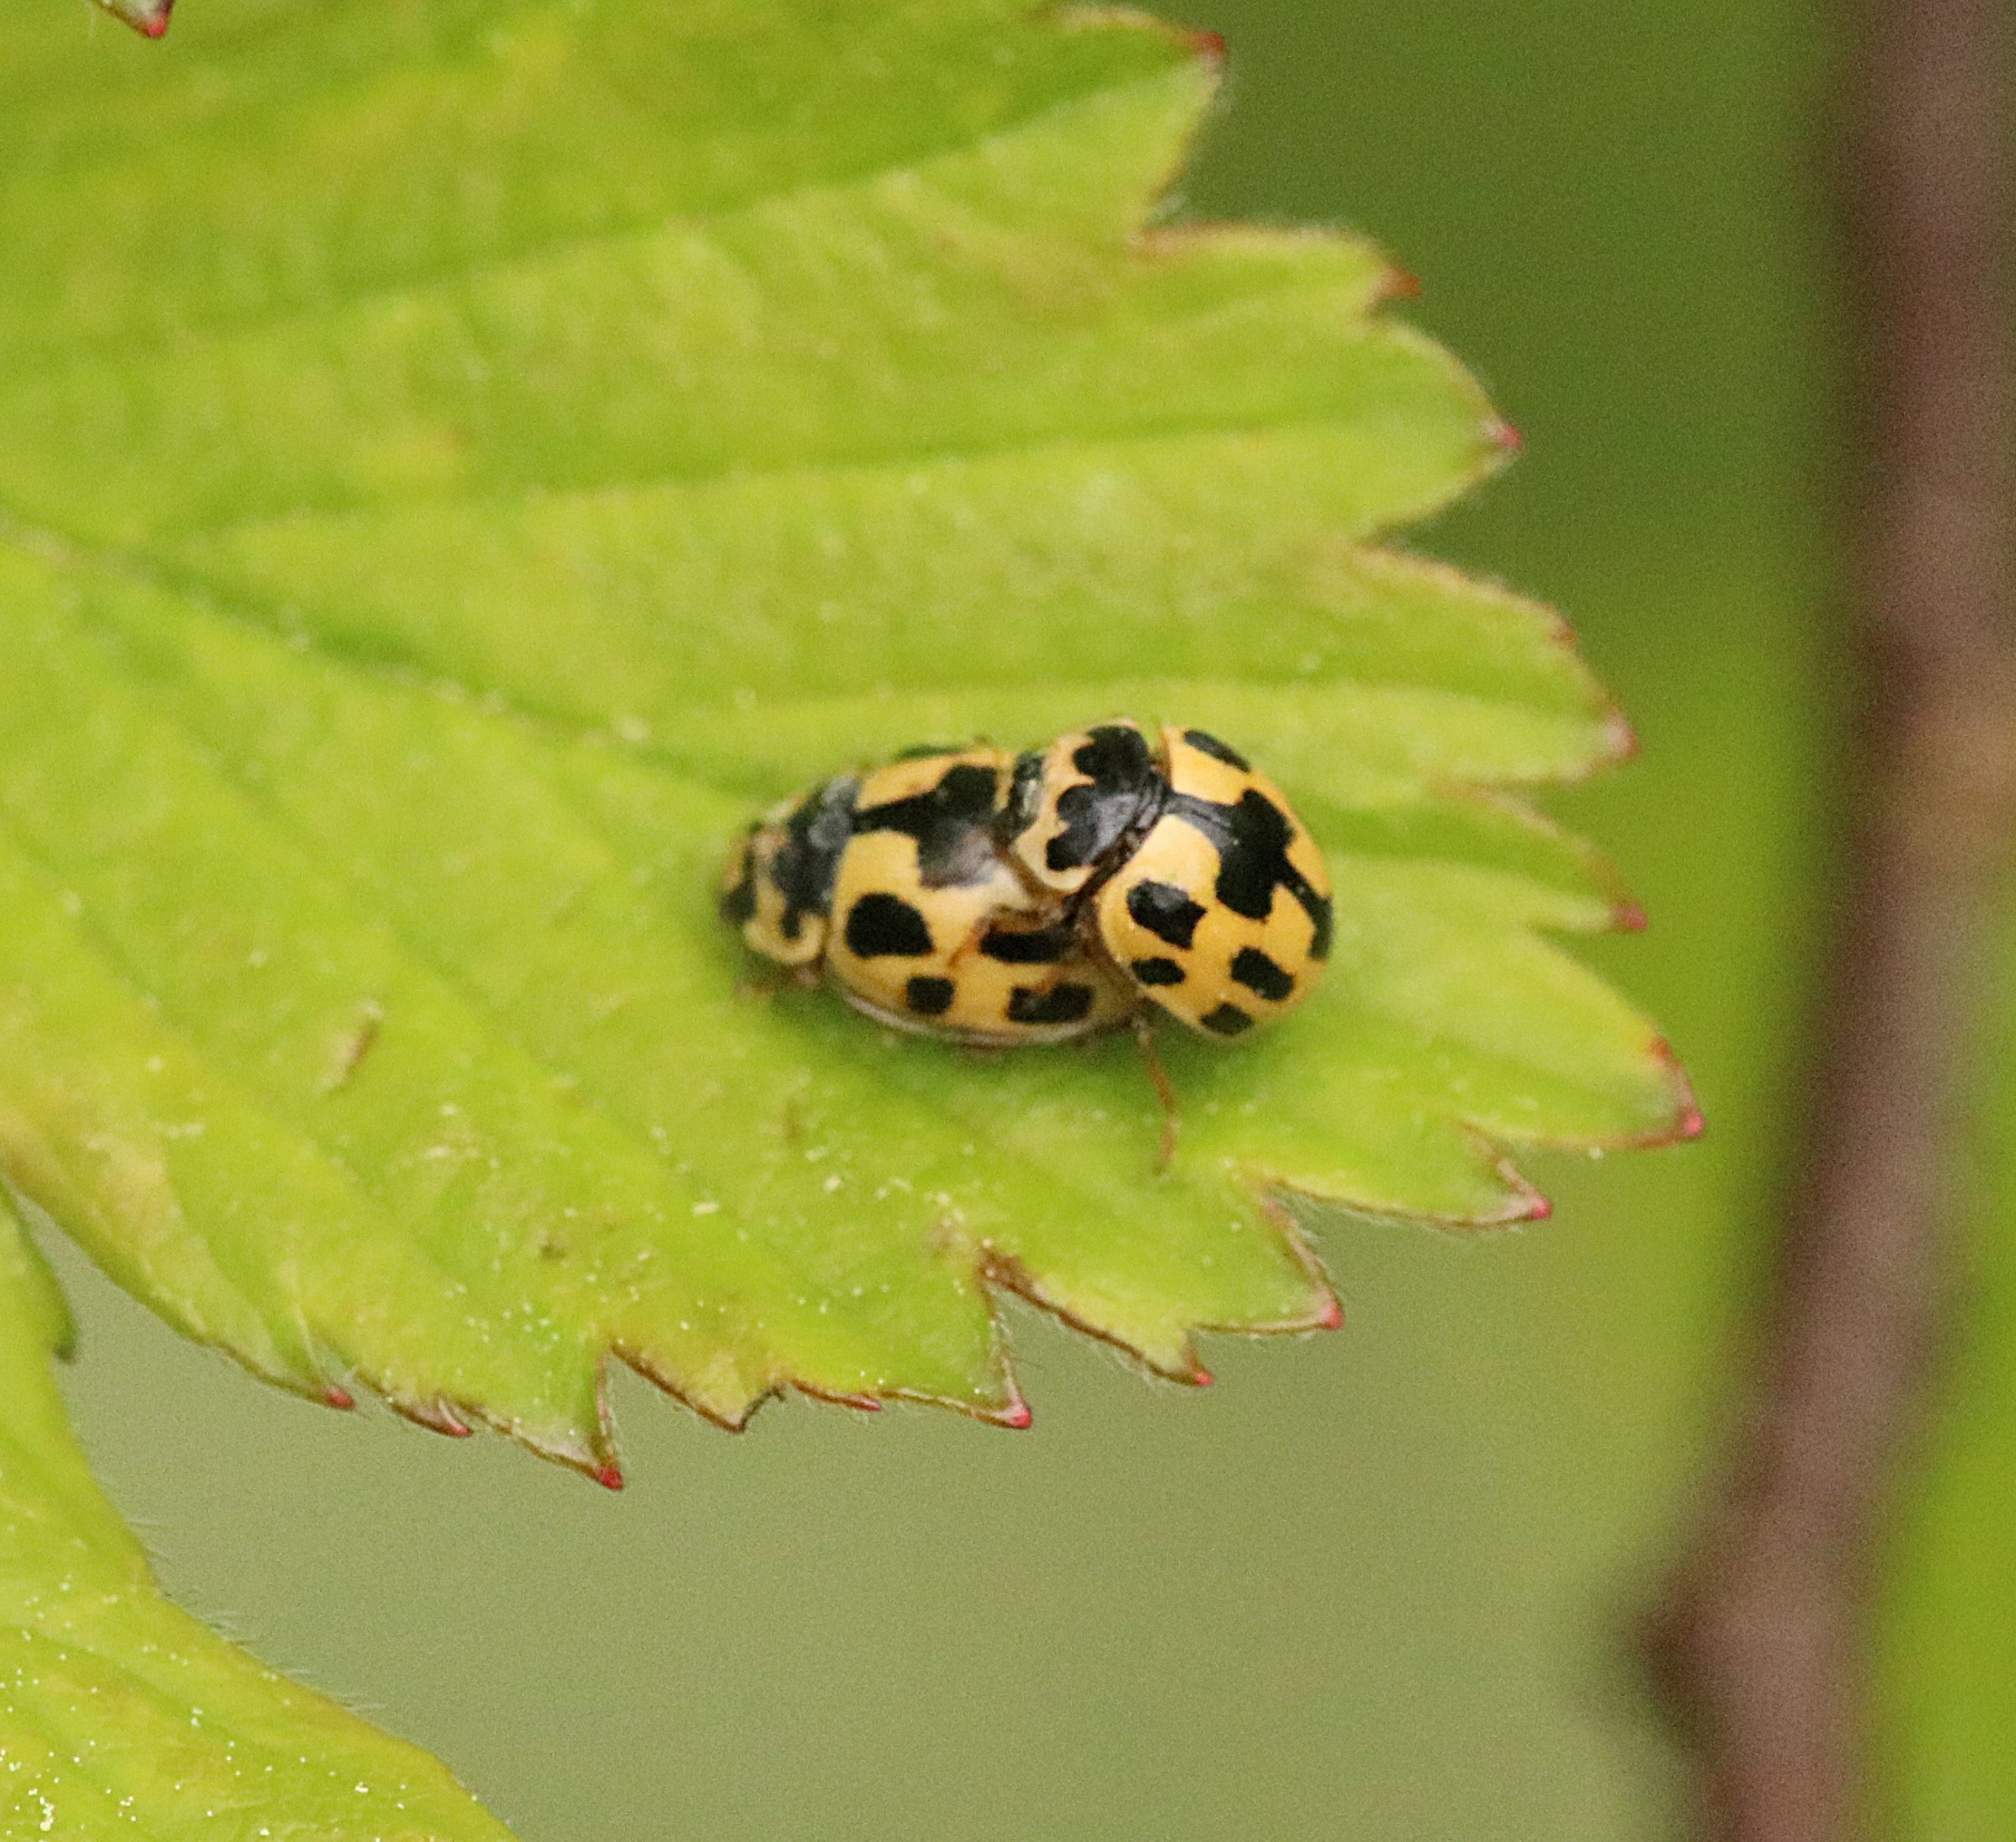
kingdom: Animalia
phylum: Arthropoda
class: Insecta
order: Coleoptera
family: Coccinellidae
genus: Propylaea
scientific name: Propylaea quatuordecimpunctata
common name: Skakbræt
